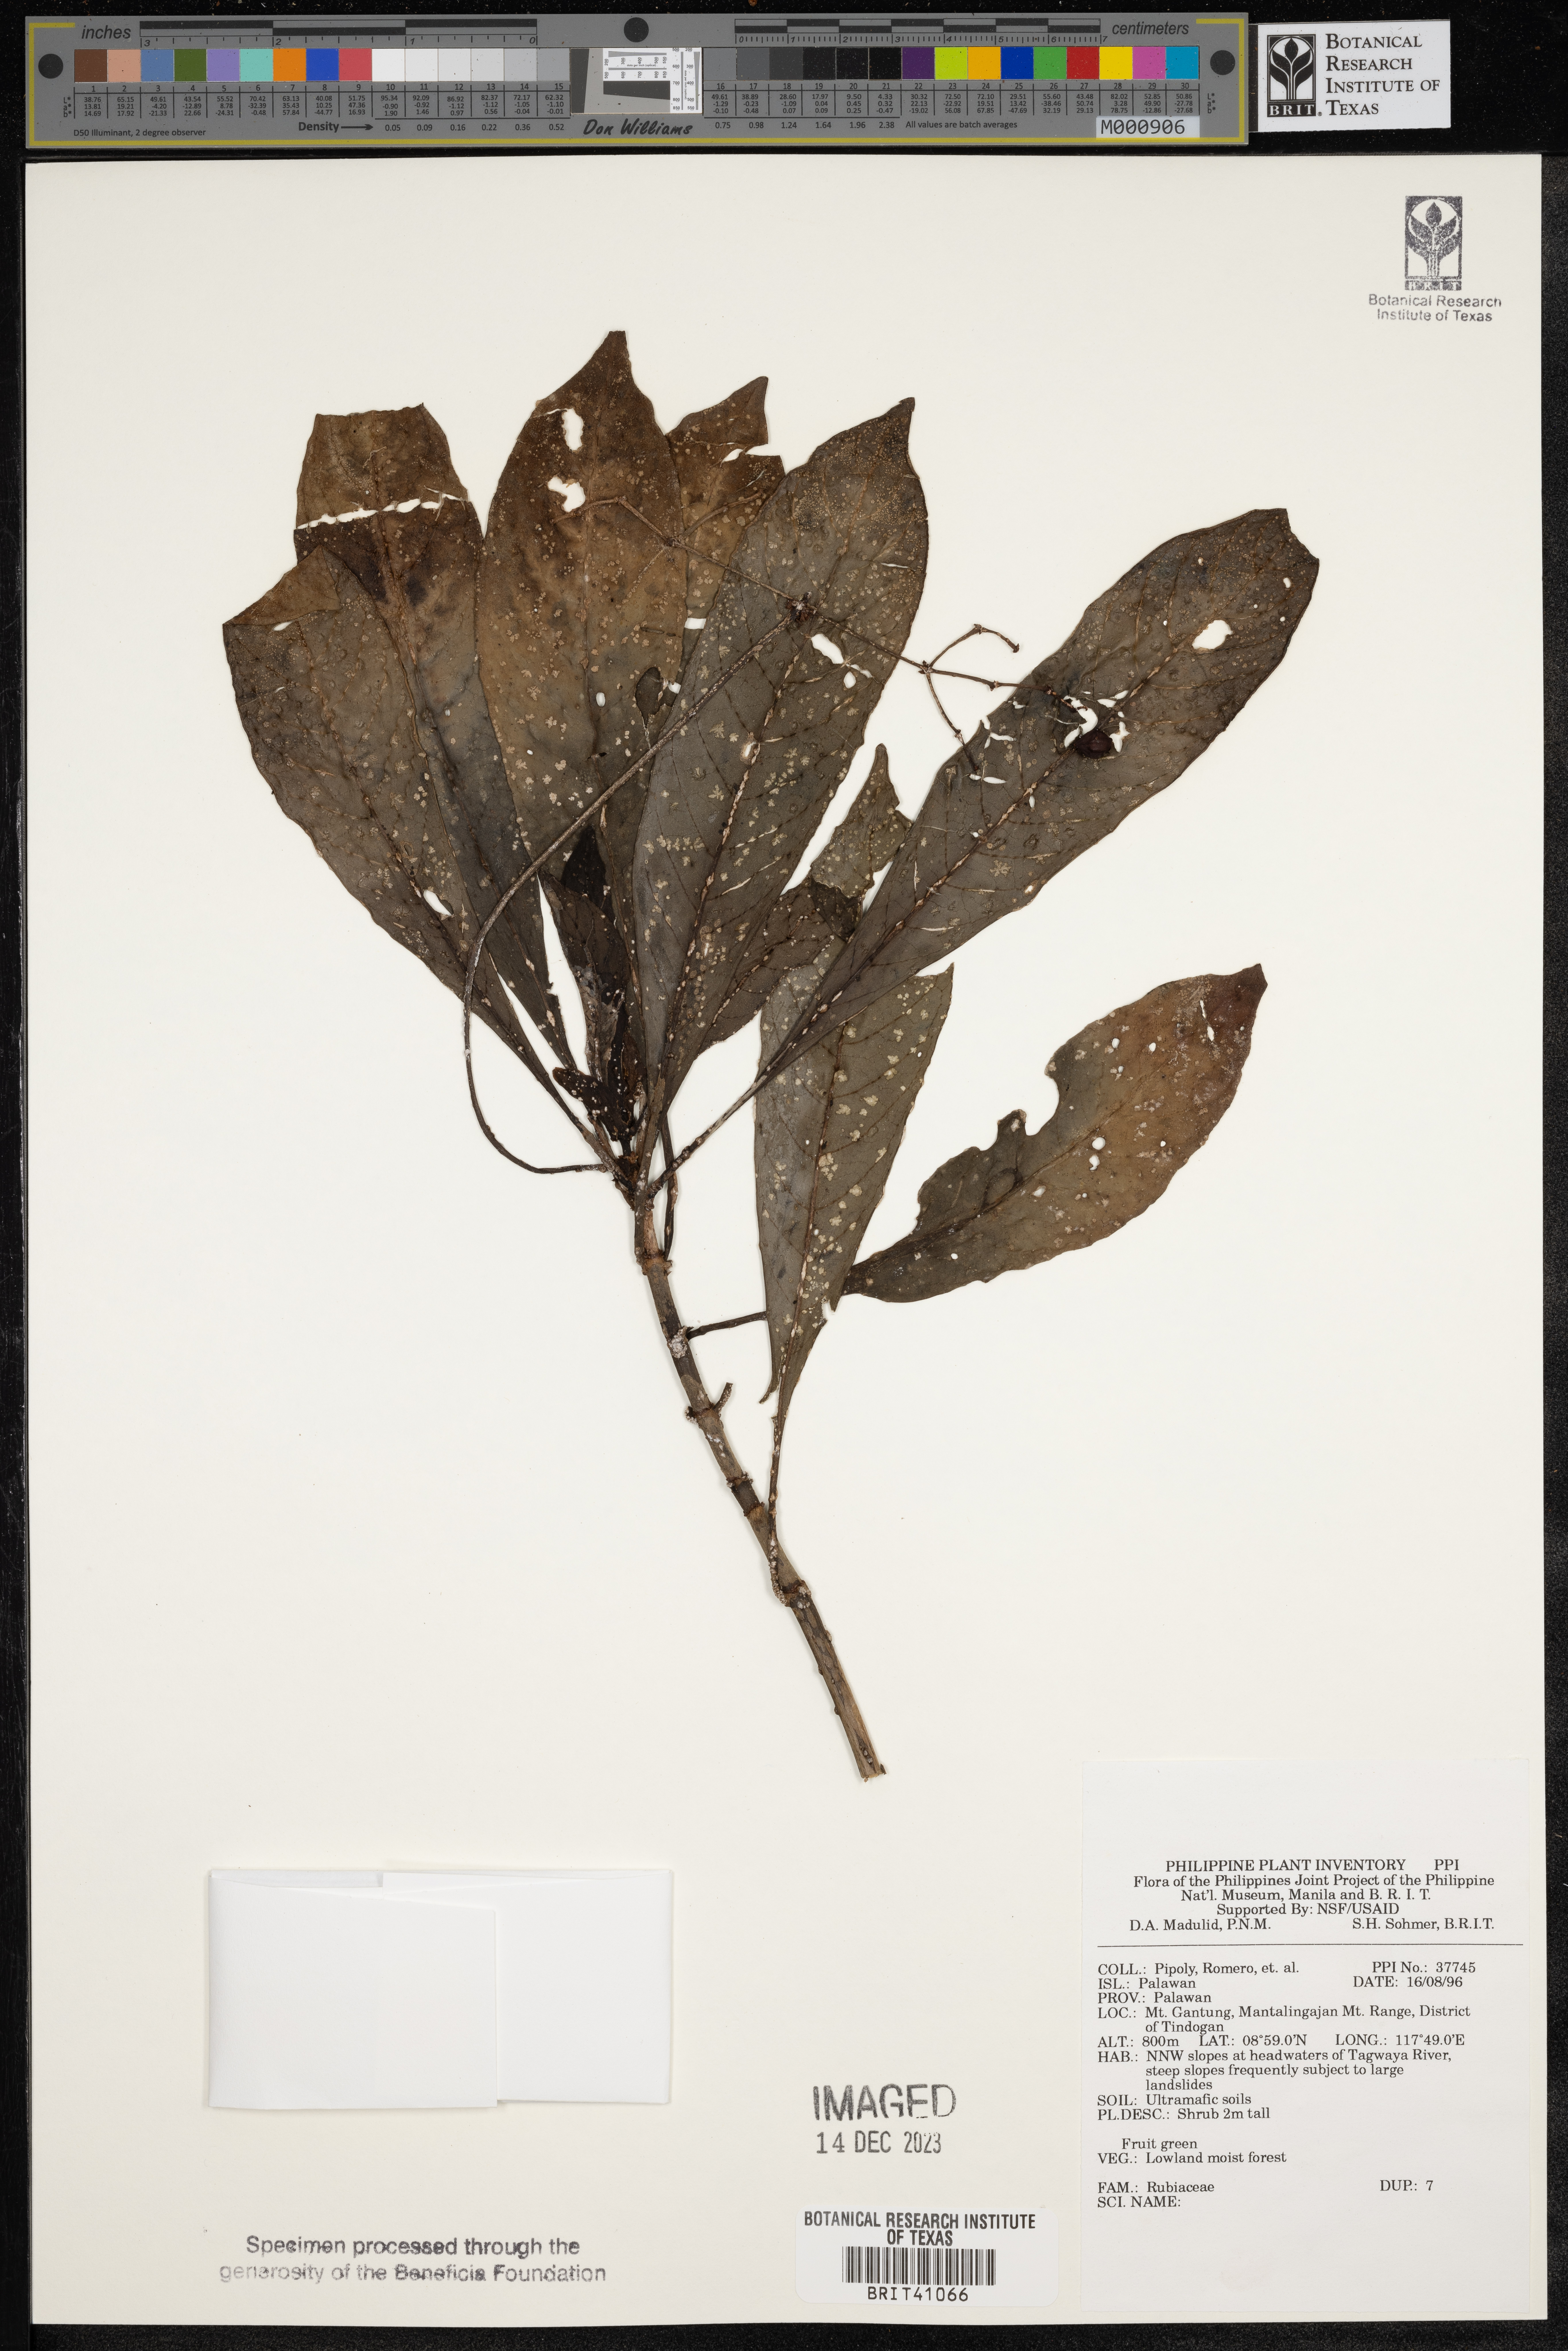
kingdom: Plantae
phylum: Tracheophyta
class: Magnoliopsida
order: Gentianales
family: Rubiaceae
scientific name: Rubiaceae
